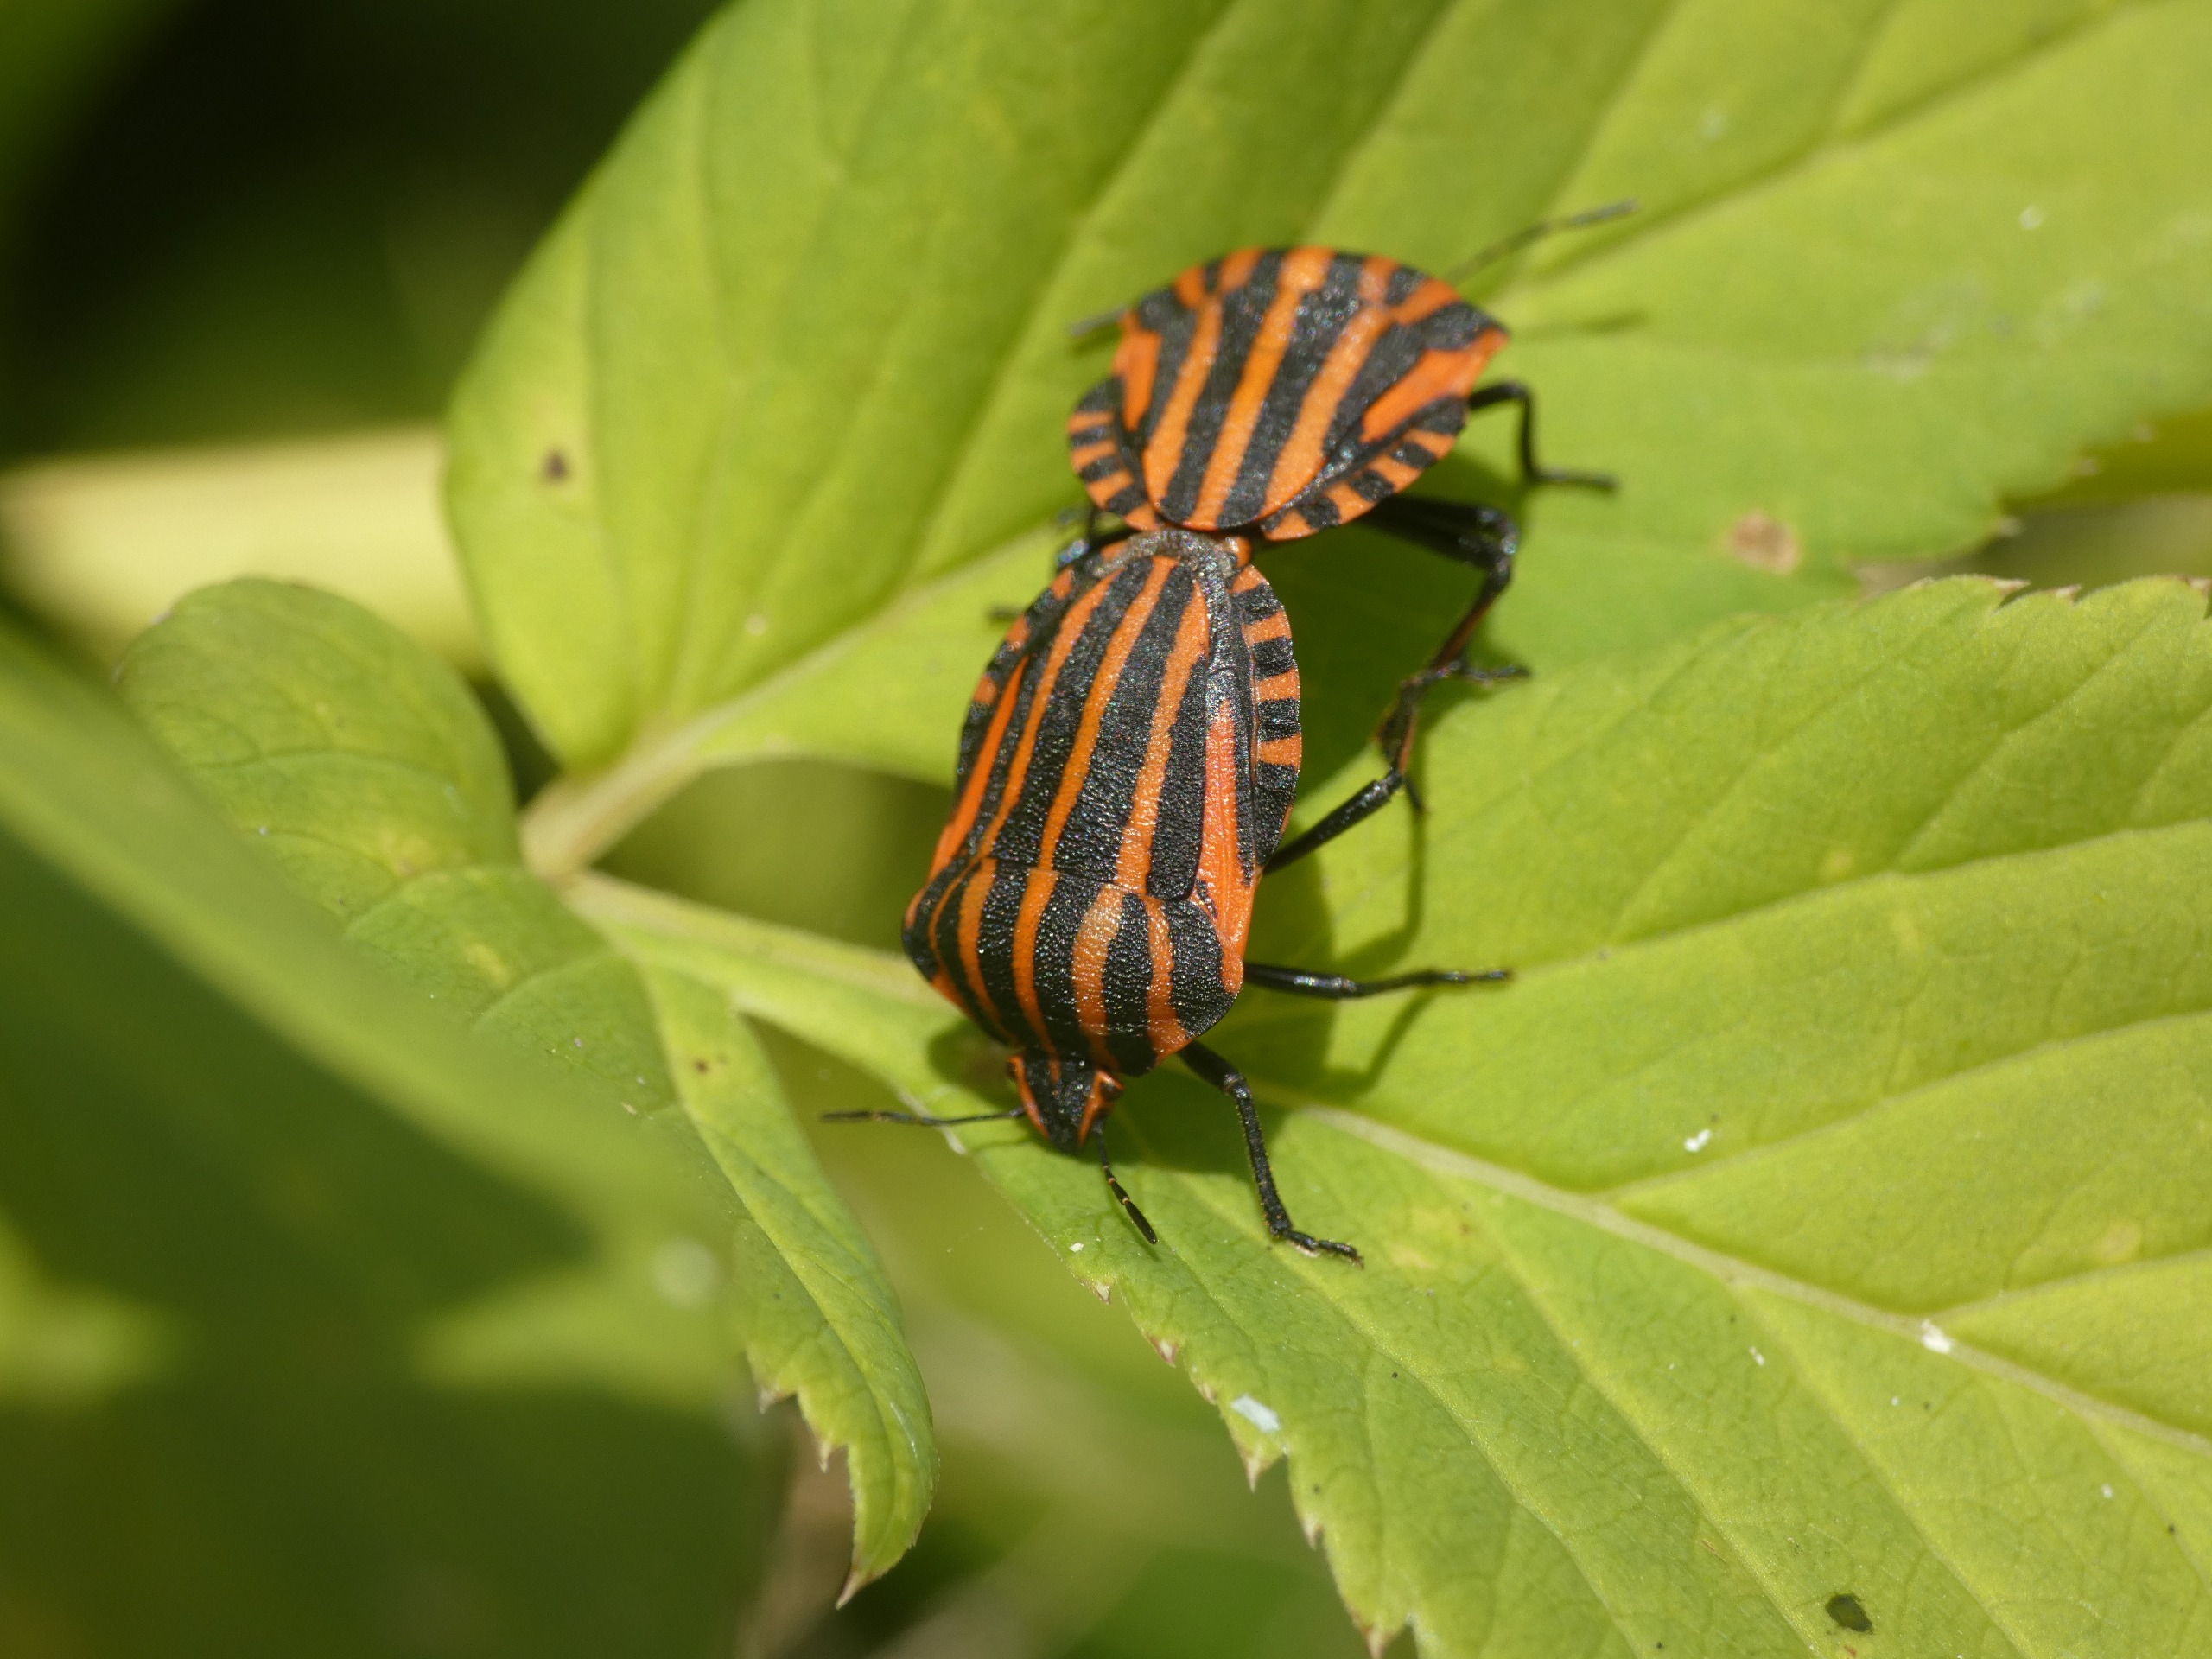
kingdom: Animalia
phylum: Arthropoda
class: Insecta
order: Hemiptera
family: Pentatomidae
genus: Graphosoma
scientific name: Graphosoma italicum
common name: Stribetæge
